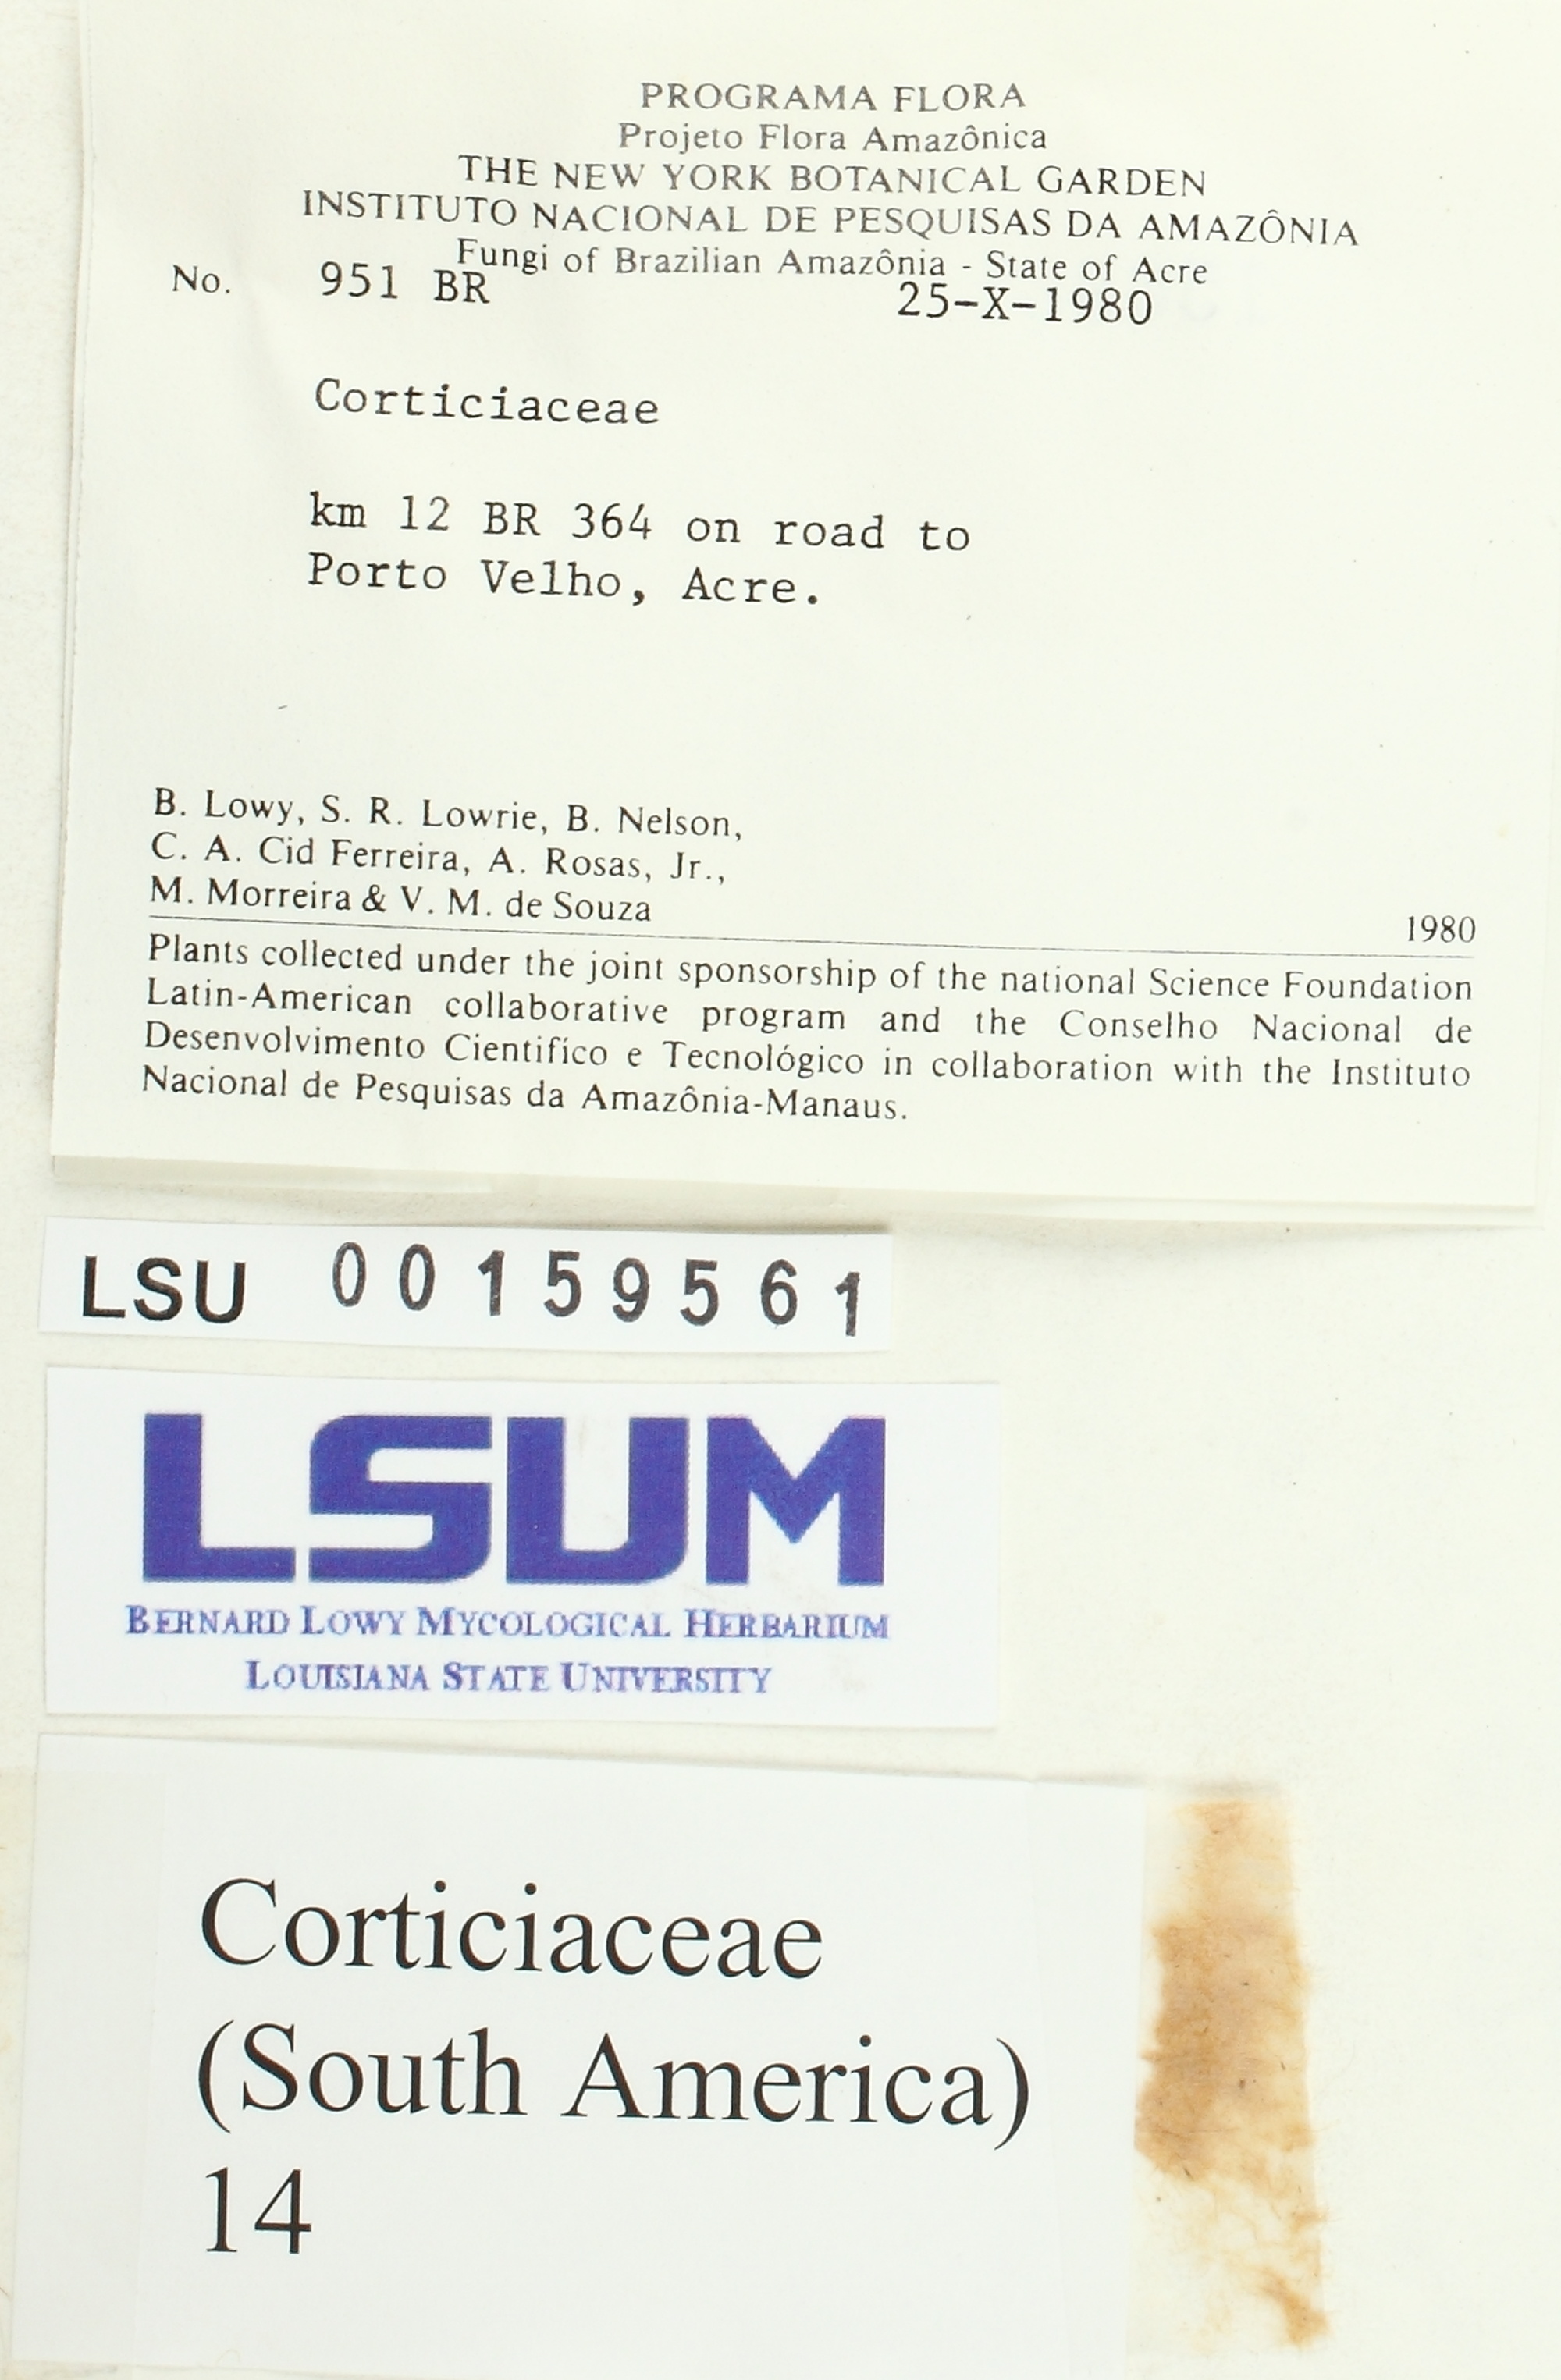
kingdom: Fungi
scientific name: Fungi
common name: Fungi
